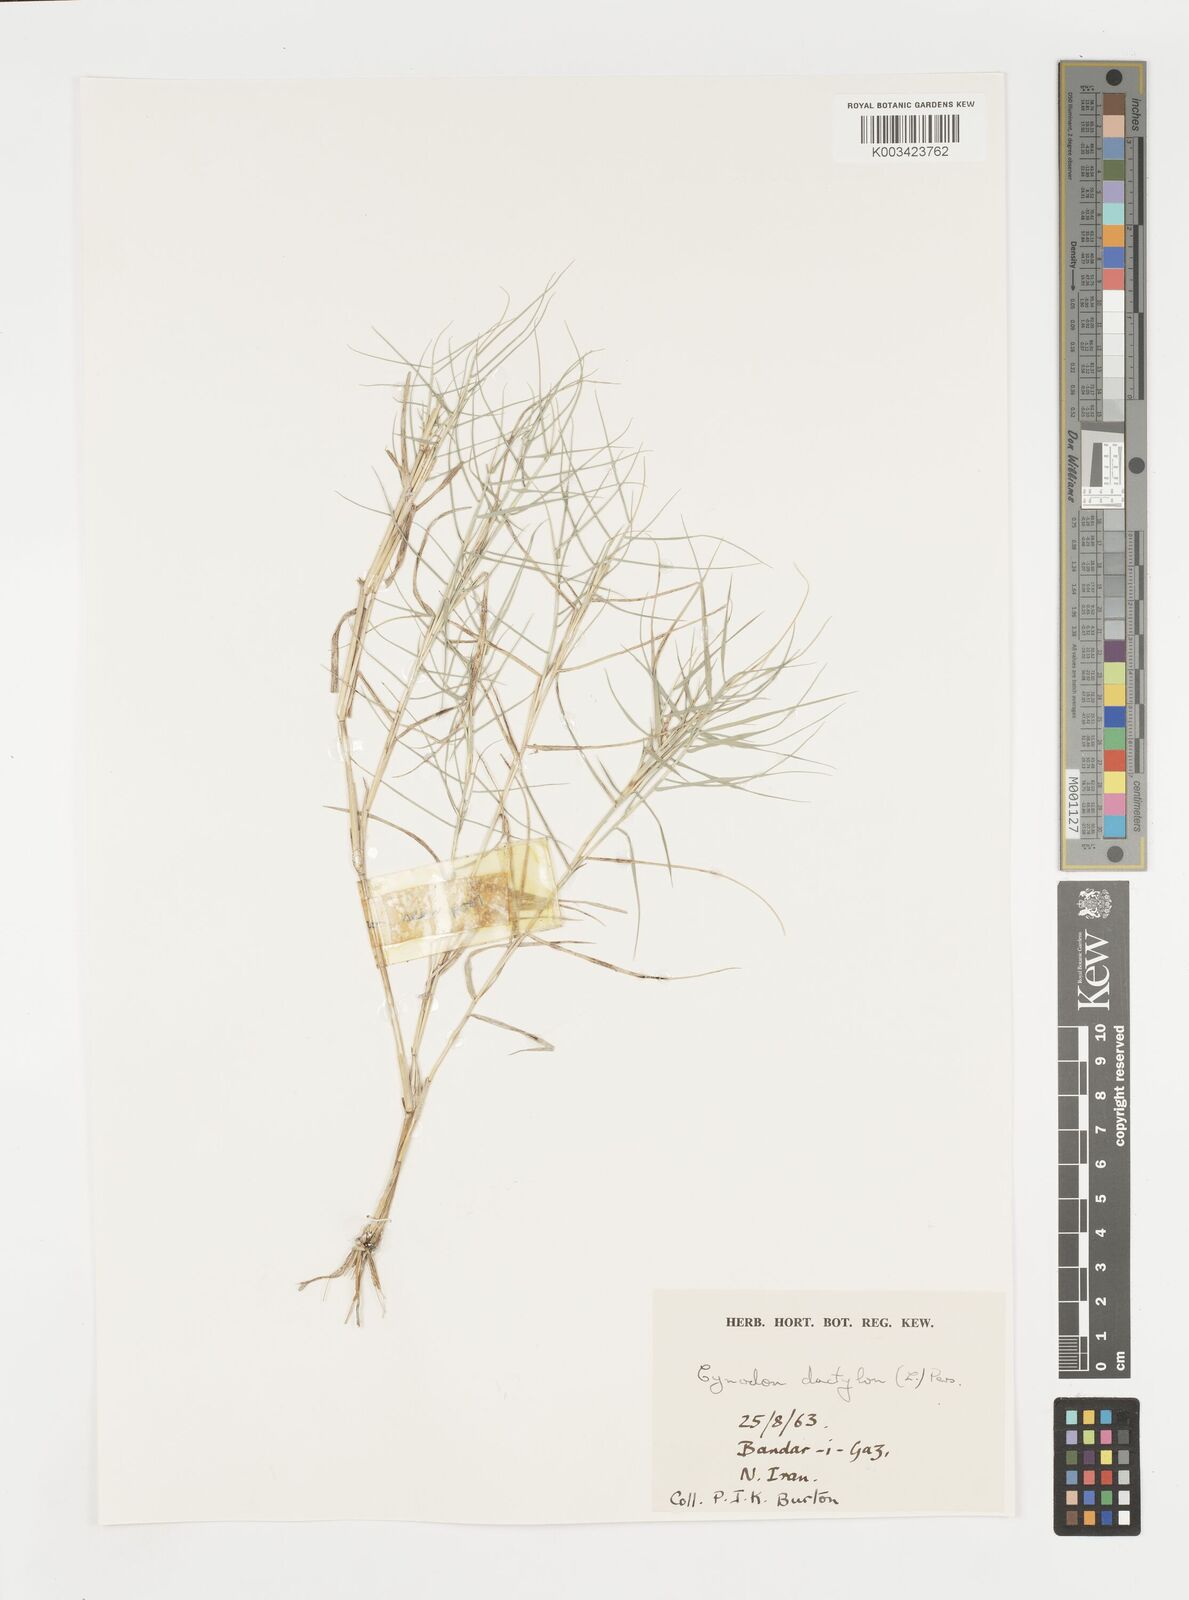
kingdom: Plantae
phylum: Tracheophyta
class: Liliopsida
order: Poales
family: Poaceae
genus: Cynodon
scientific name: Cynodon dactylon
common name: Bermuda grass
